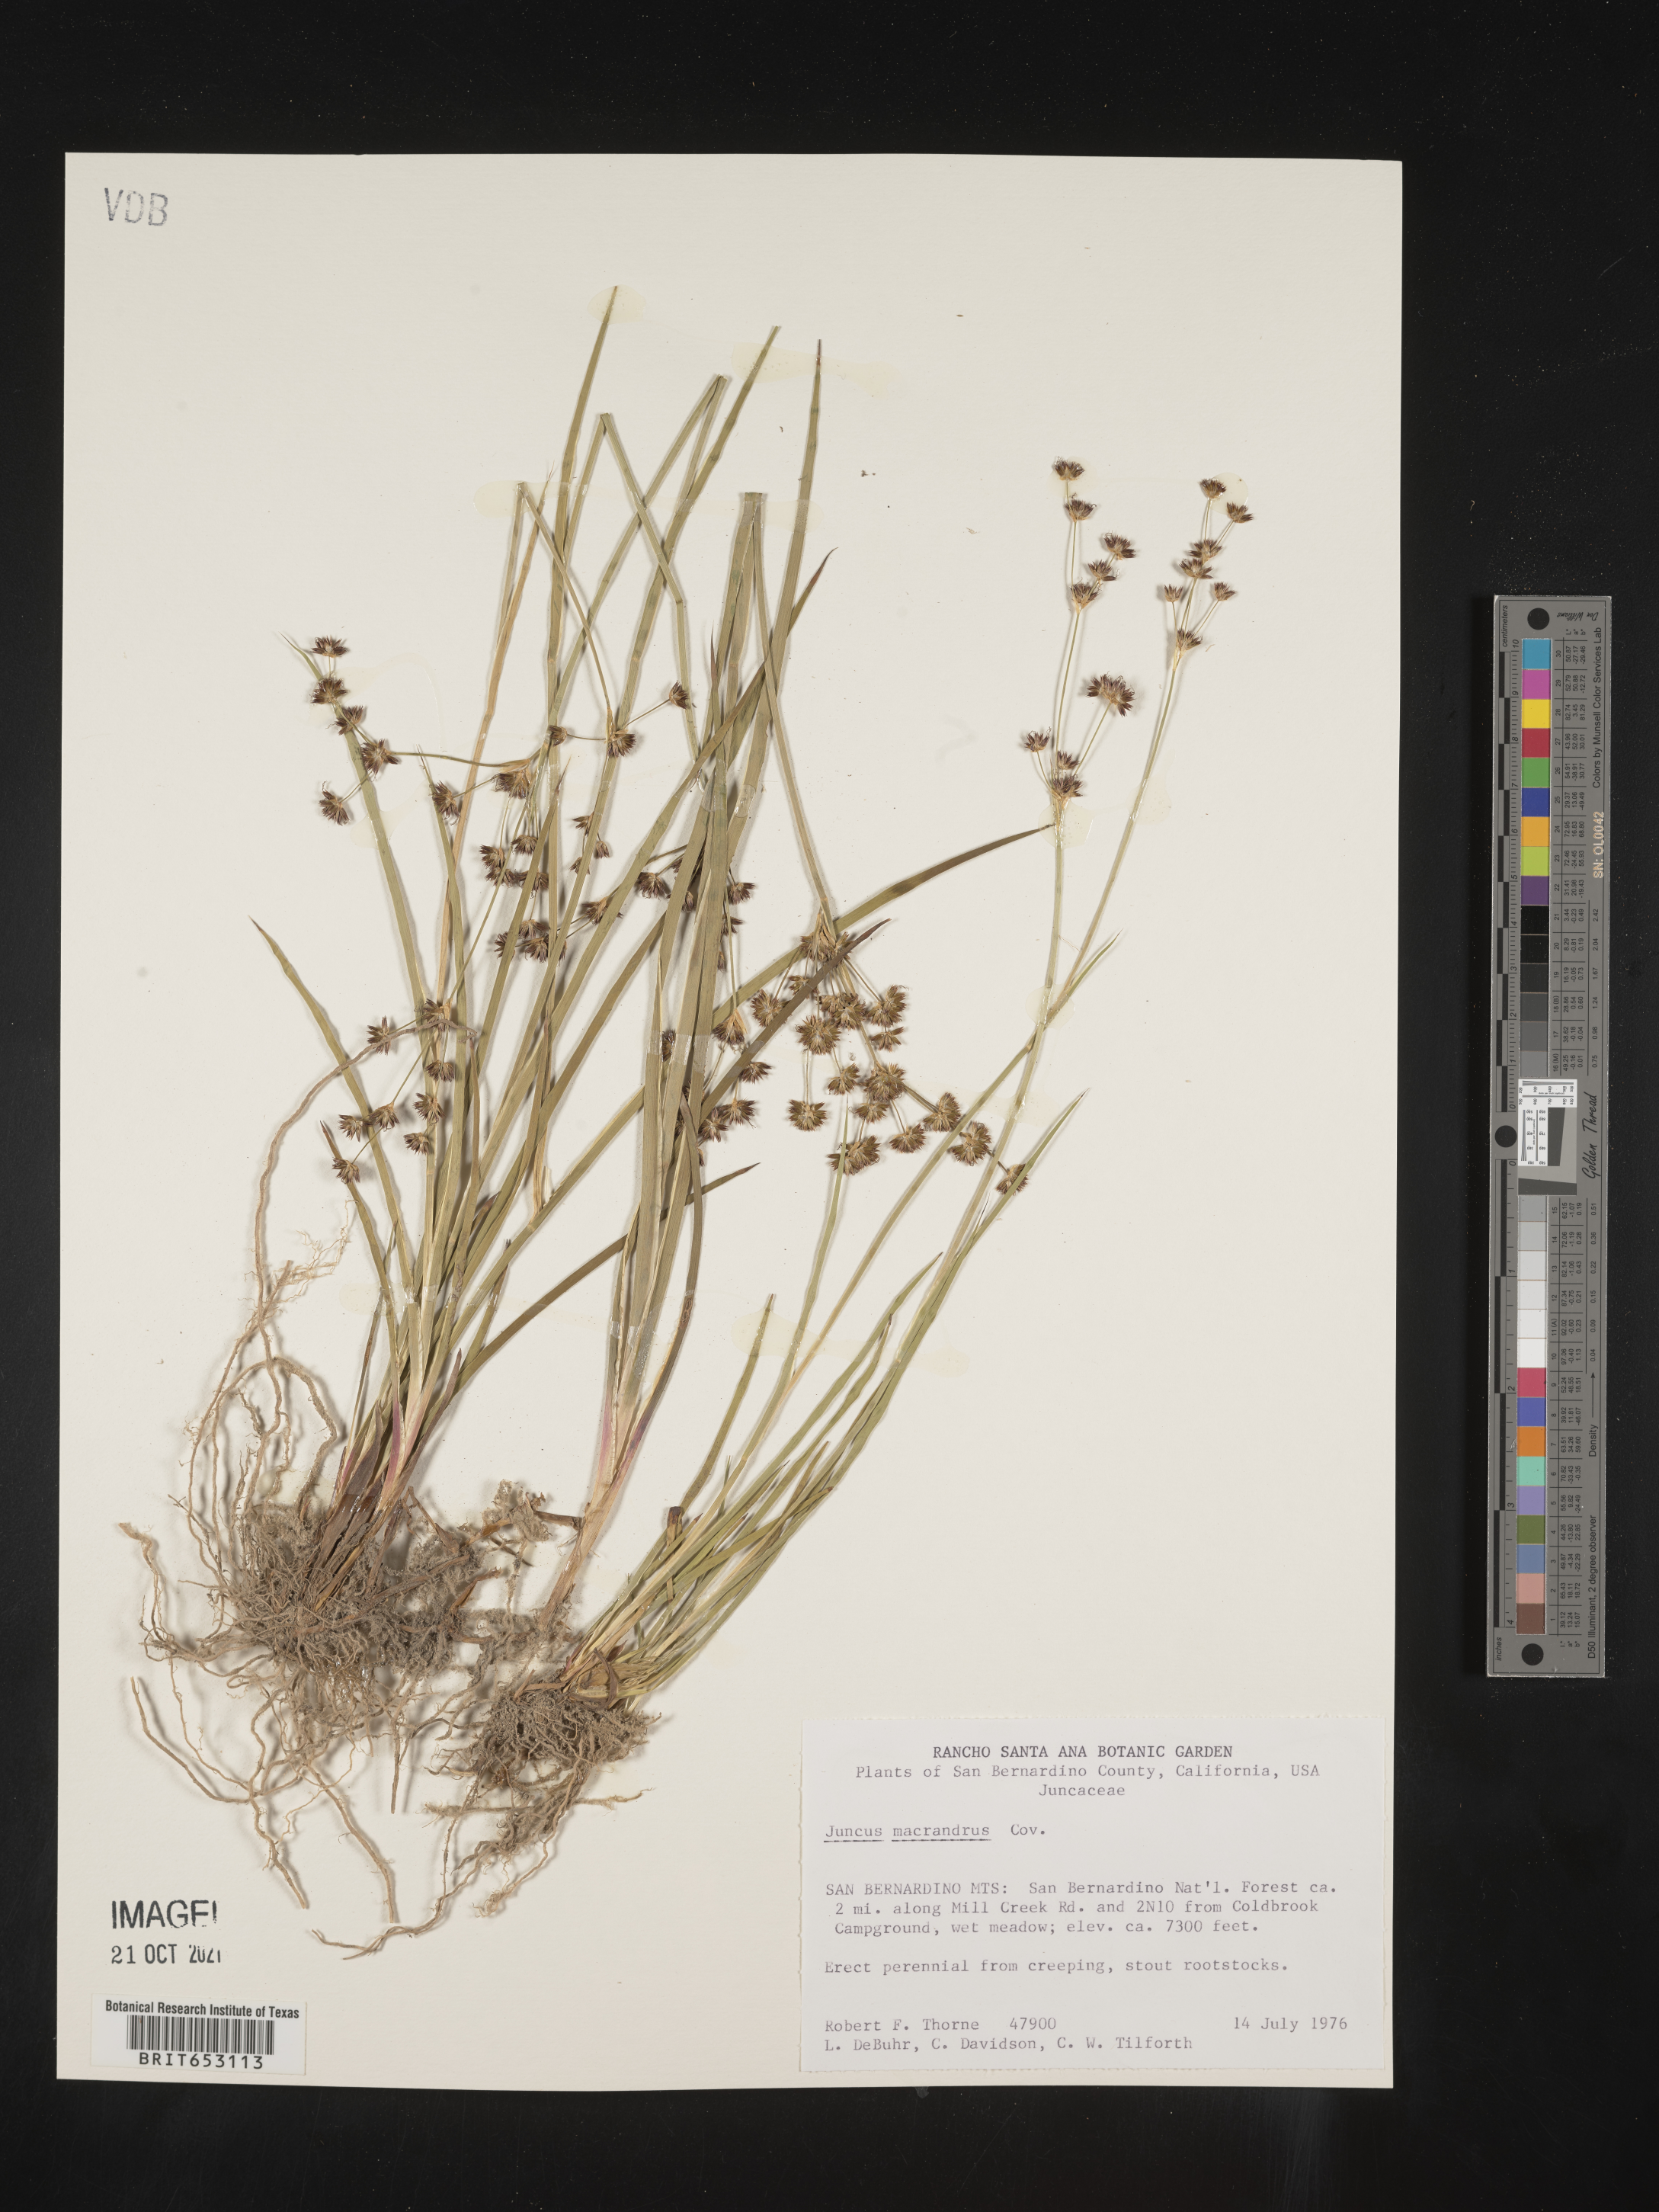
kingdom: Plantae
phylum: Tracheophyta
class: Liliopsida
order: Poales
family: Juncaceae
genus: Juncus
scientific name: Juncus macrandrus
